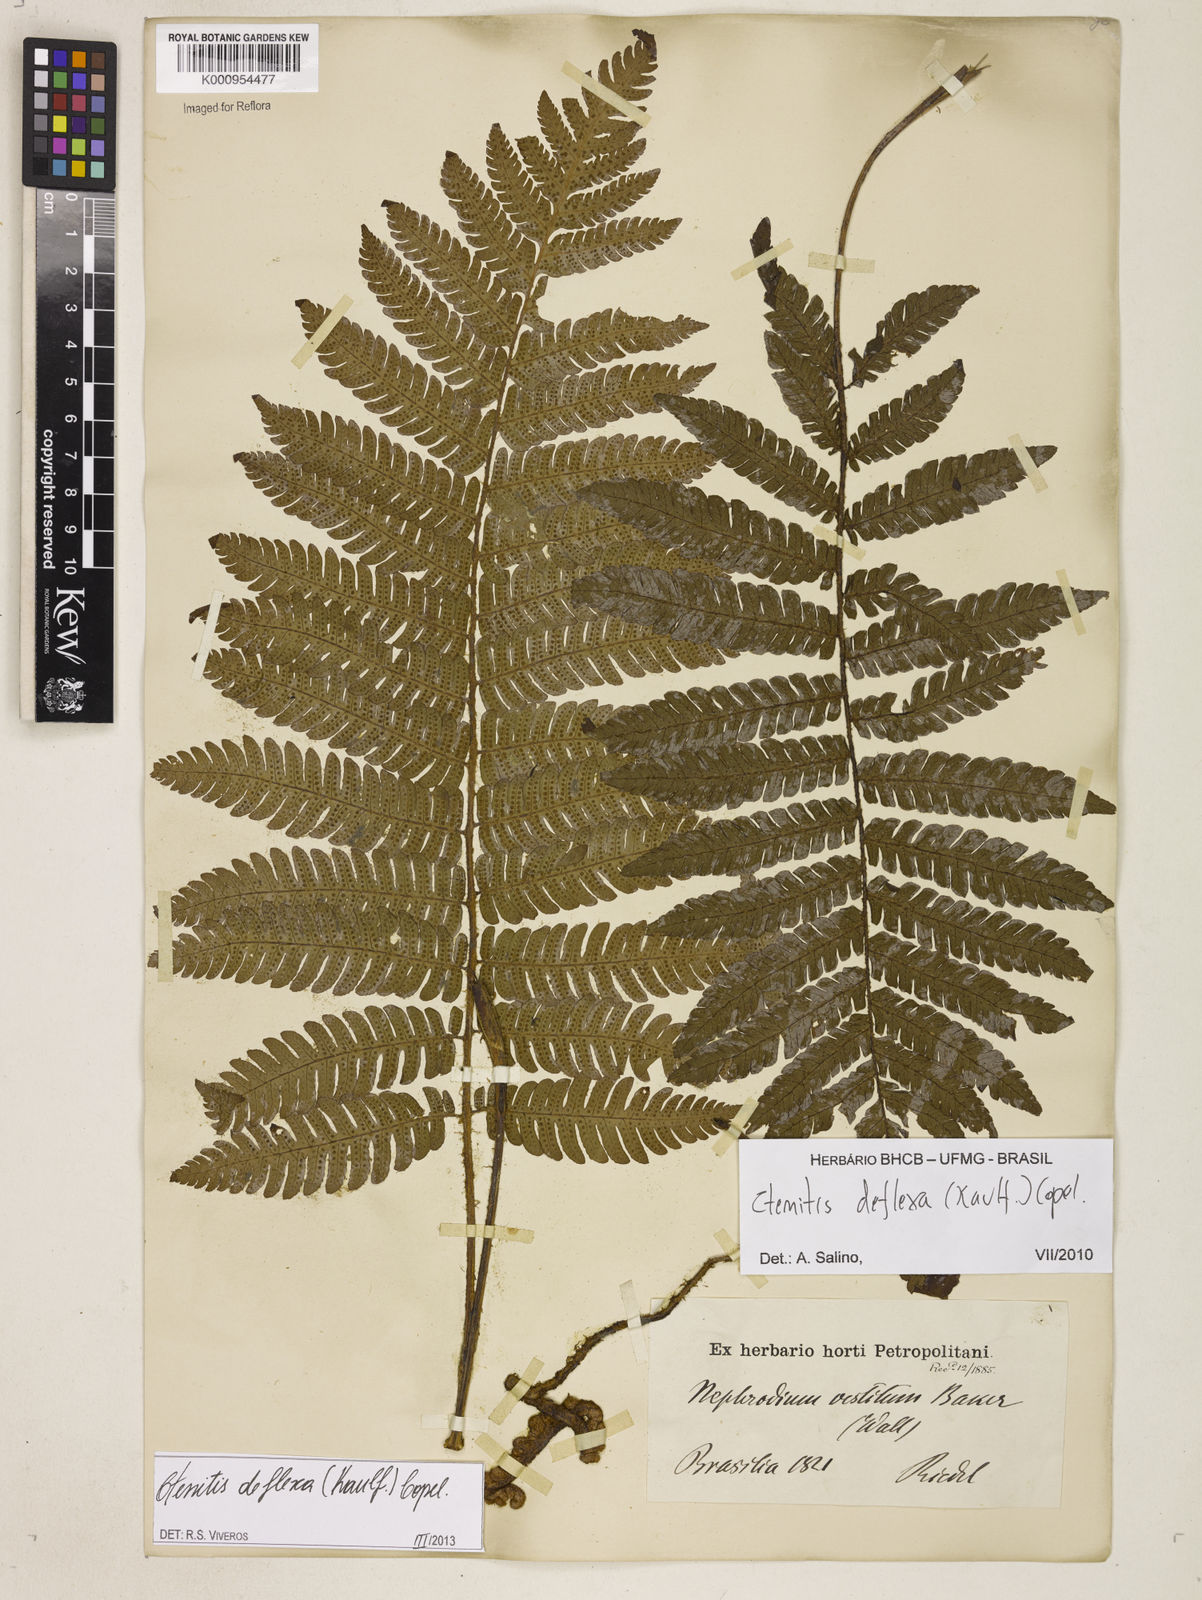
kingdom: Plantae
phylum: Tracheophyta
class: Polypodiopsida
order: Polypodiales
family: Dryopteridaceae
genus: Ctenitis
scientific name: Ctenitis deflexa
